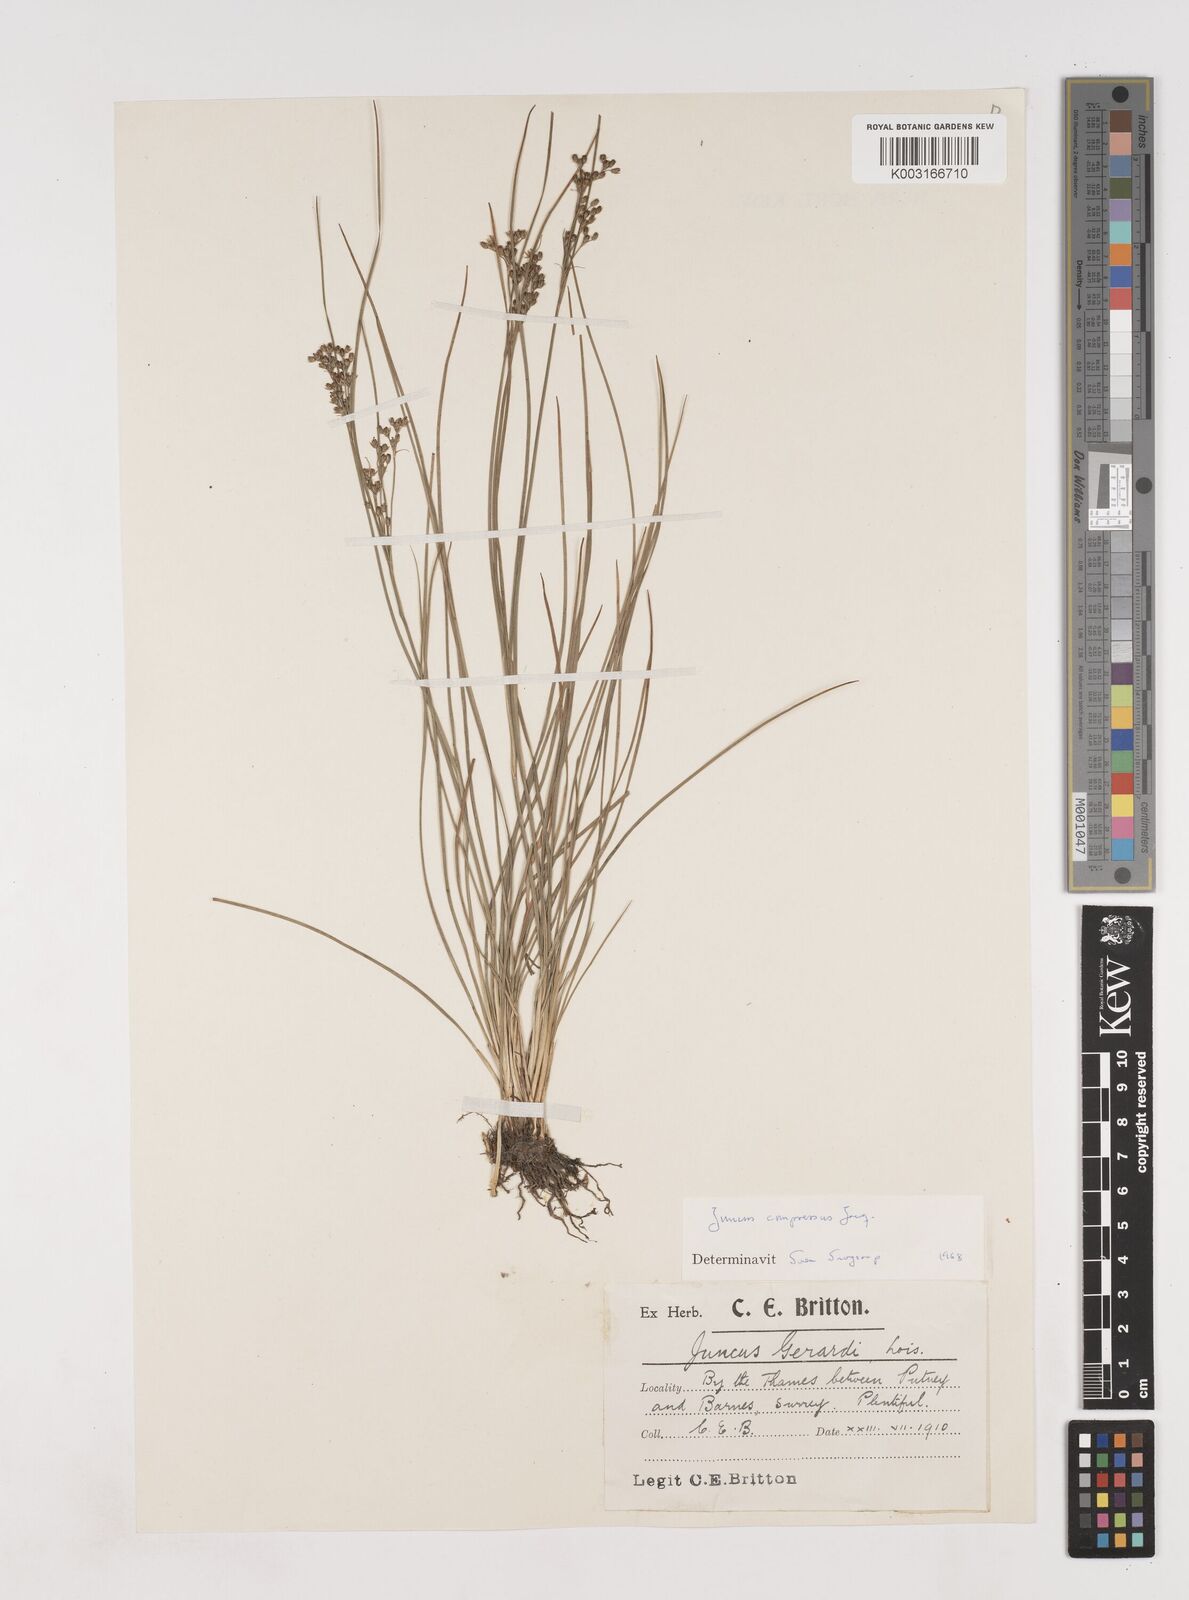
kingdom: Plantae
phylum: Tracheophyta
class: Liliopsida
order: Poales
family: Juncaceae
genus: Juncus
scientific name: Juncus compressus
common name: Round-fruited rush
